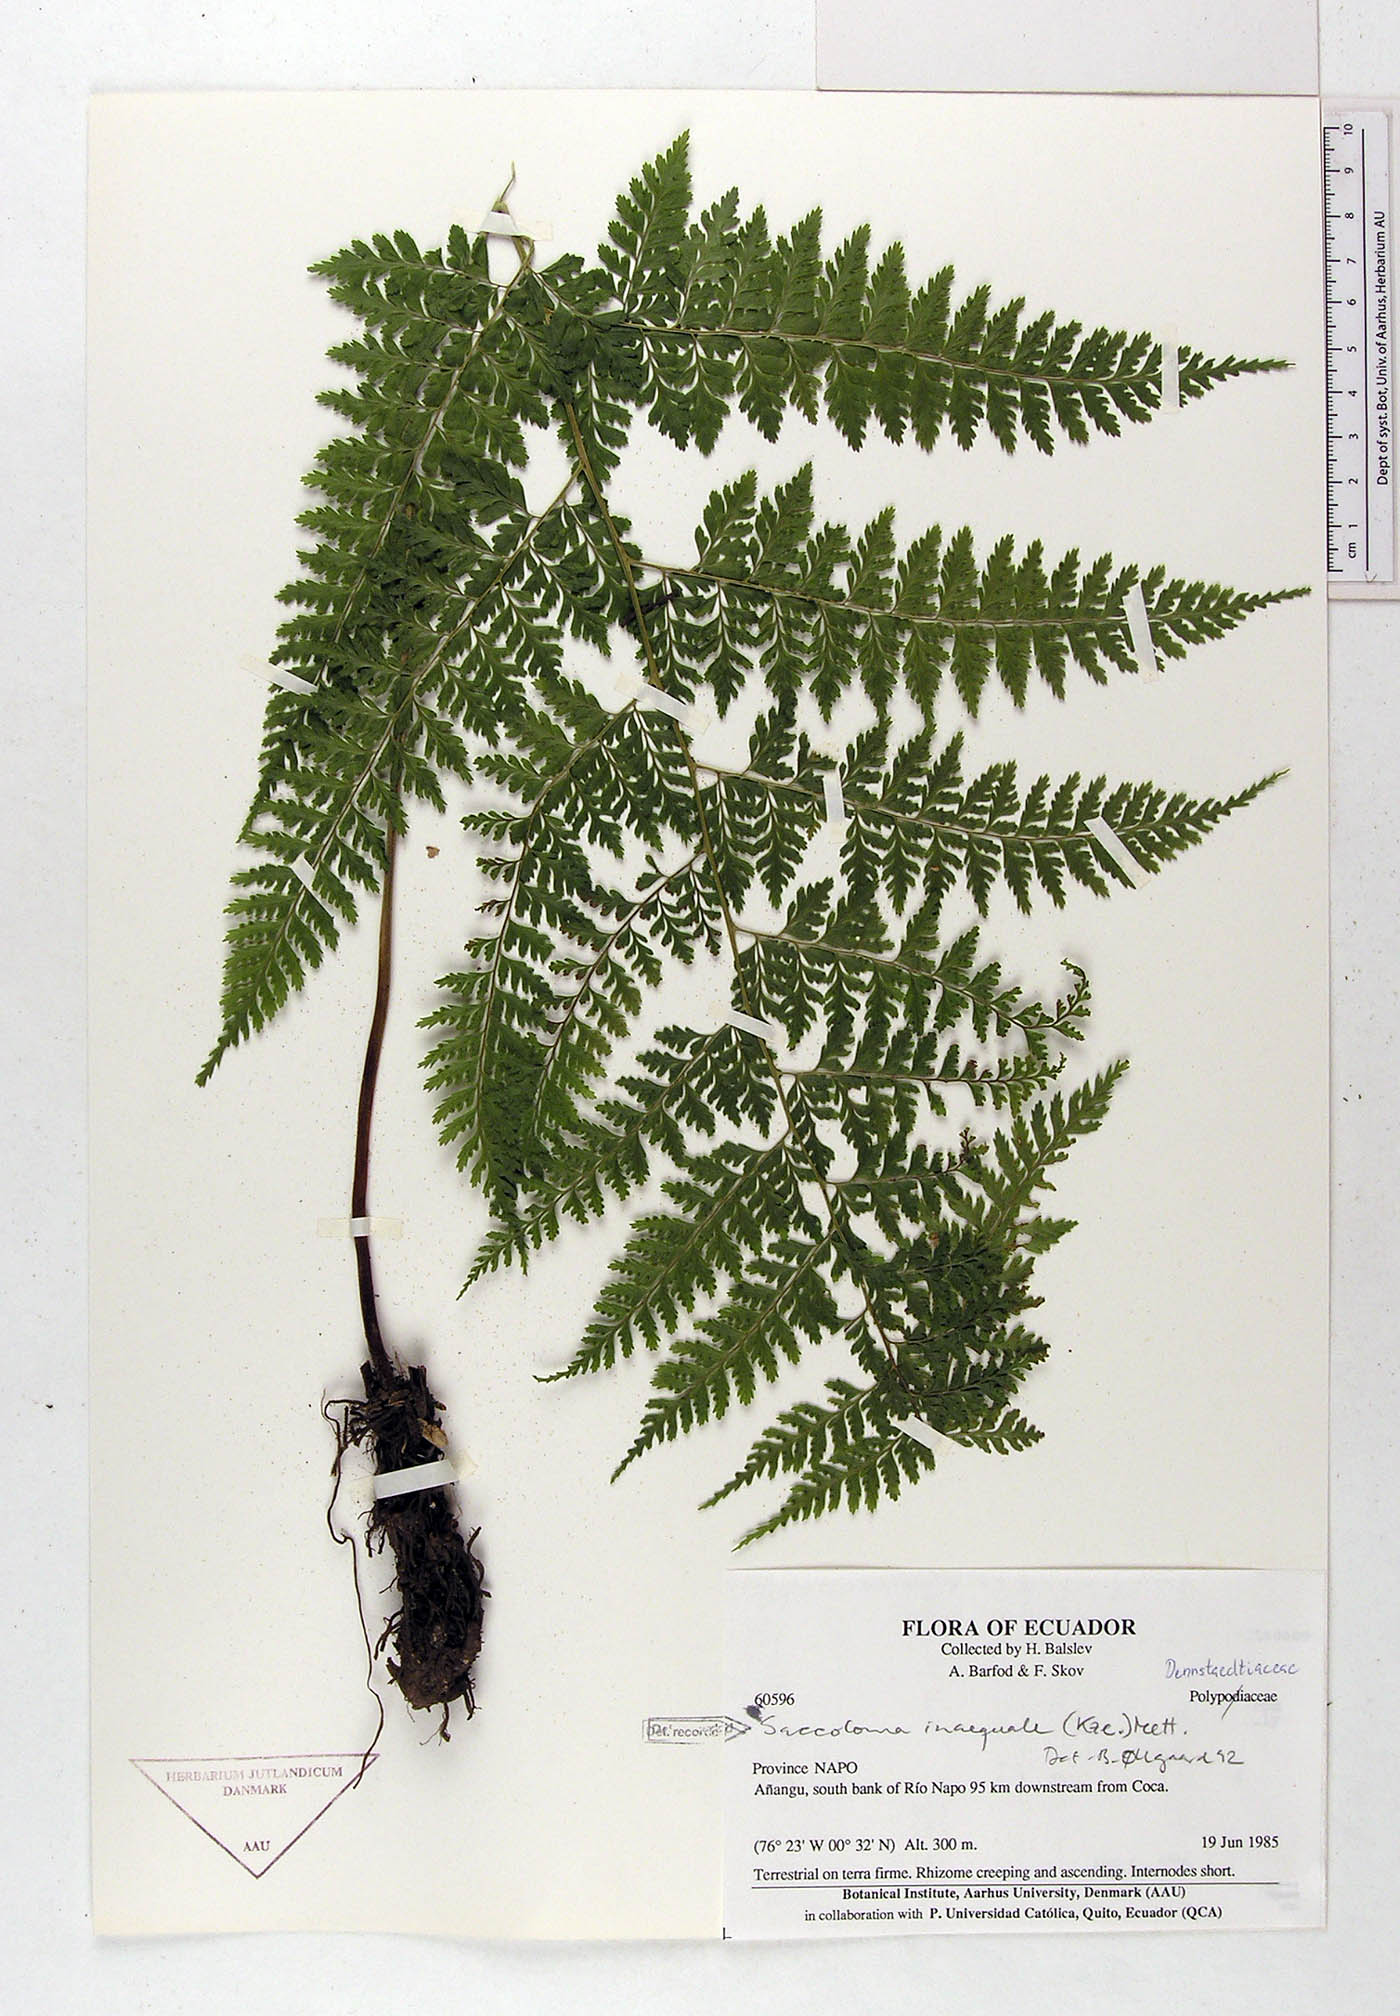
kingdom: Plantae
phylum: Tracheophyta
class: Polypodiopsida
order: Polypodiales
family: Saccolomataceae
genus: Saccoloma
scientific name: Saccoloma inaequale
